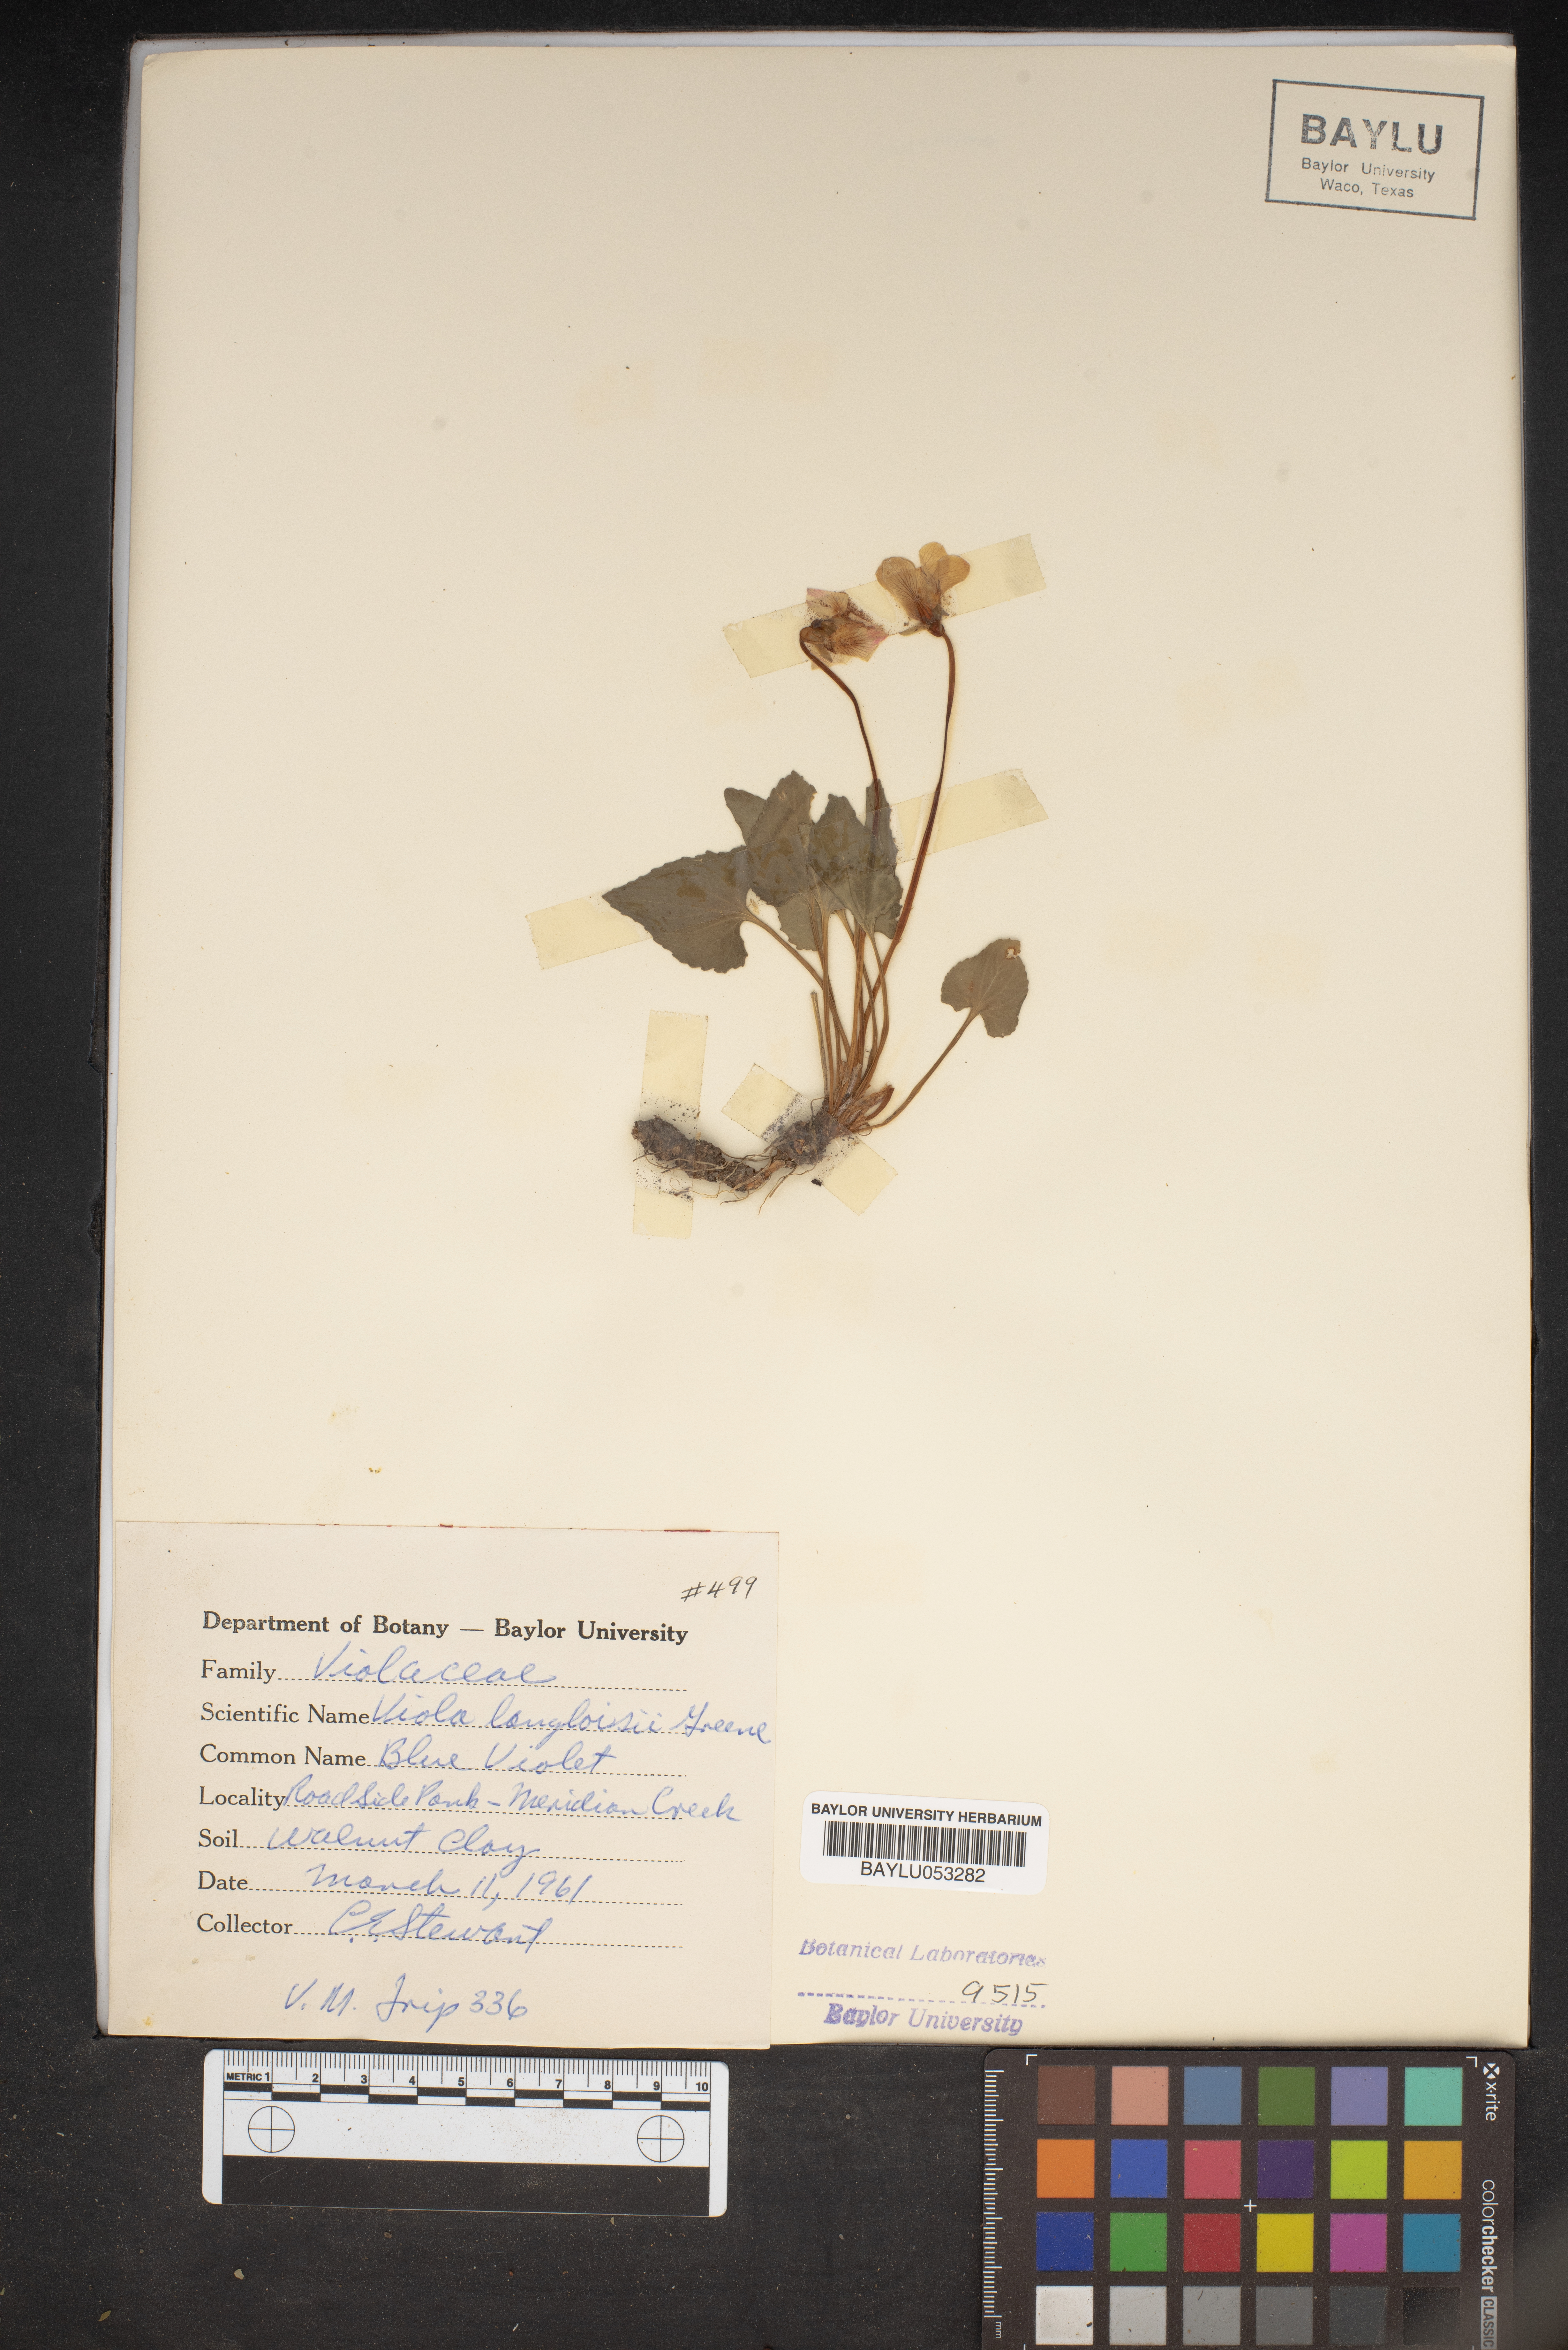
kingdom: Plantae
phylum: Tracheophyta
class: Magnoliopsida
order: Malpighiales
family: Violaceae
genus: Viola
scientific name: Viola langloisii
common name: Langlois' violet
